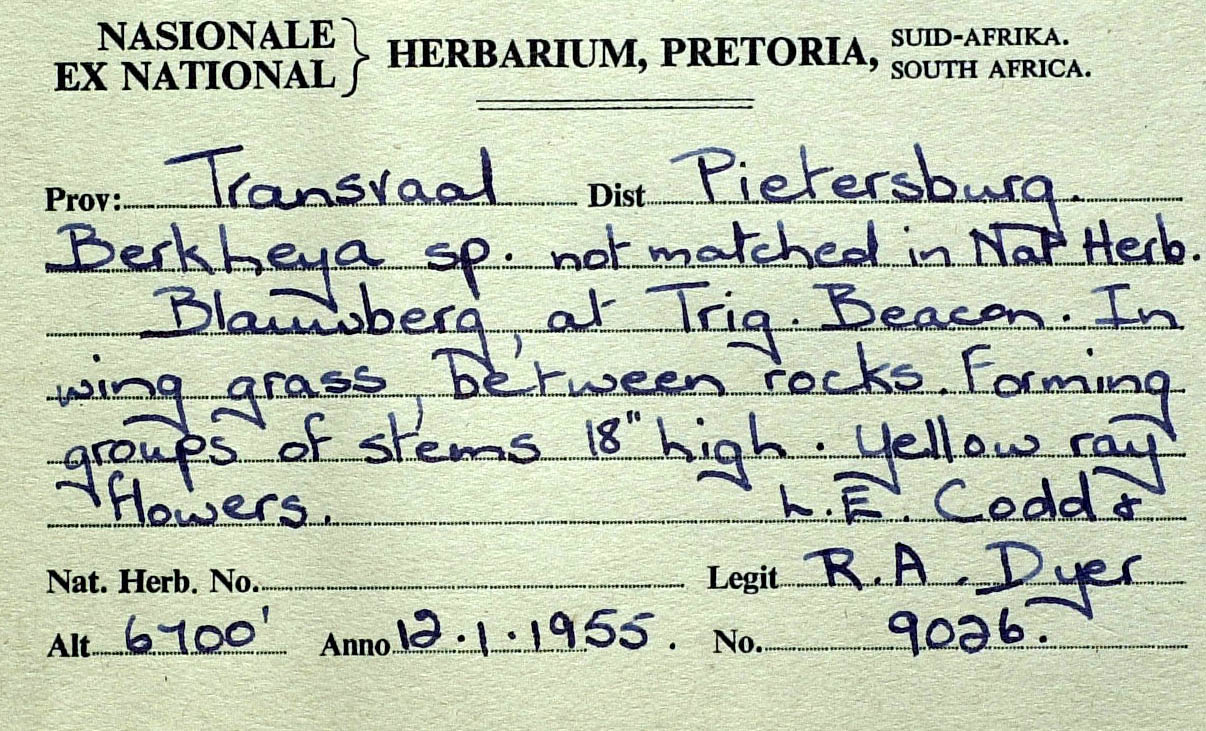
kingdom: Plantae
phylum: Tracheophyta
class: Magnoliopsida
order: Asterales
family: Asteraceae
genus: Berkheya
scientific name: Berkheya radyeri
